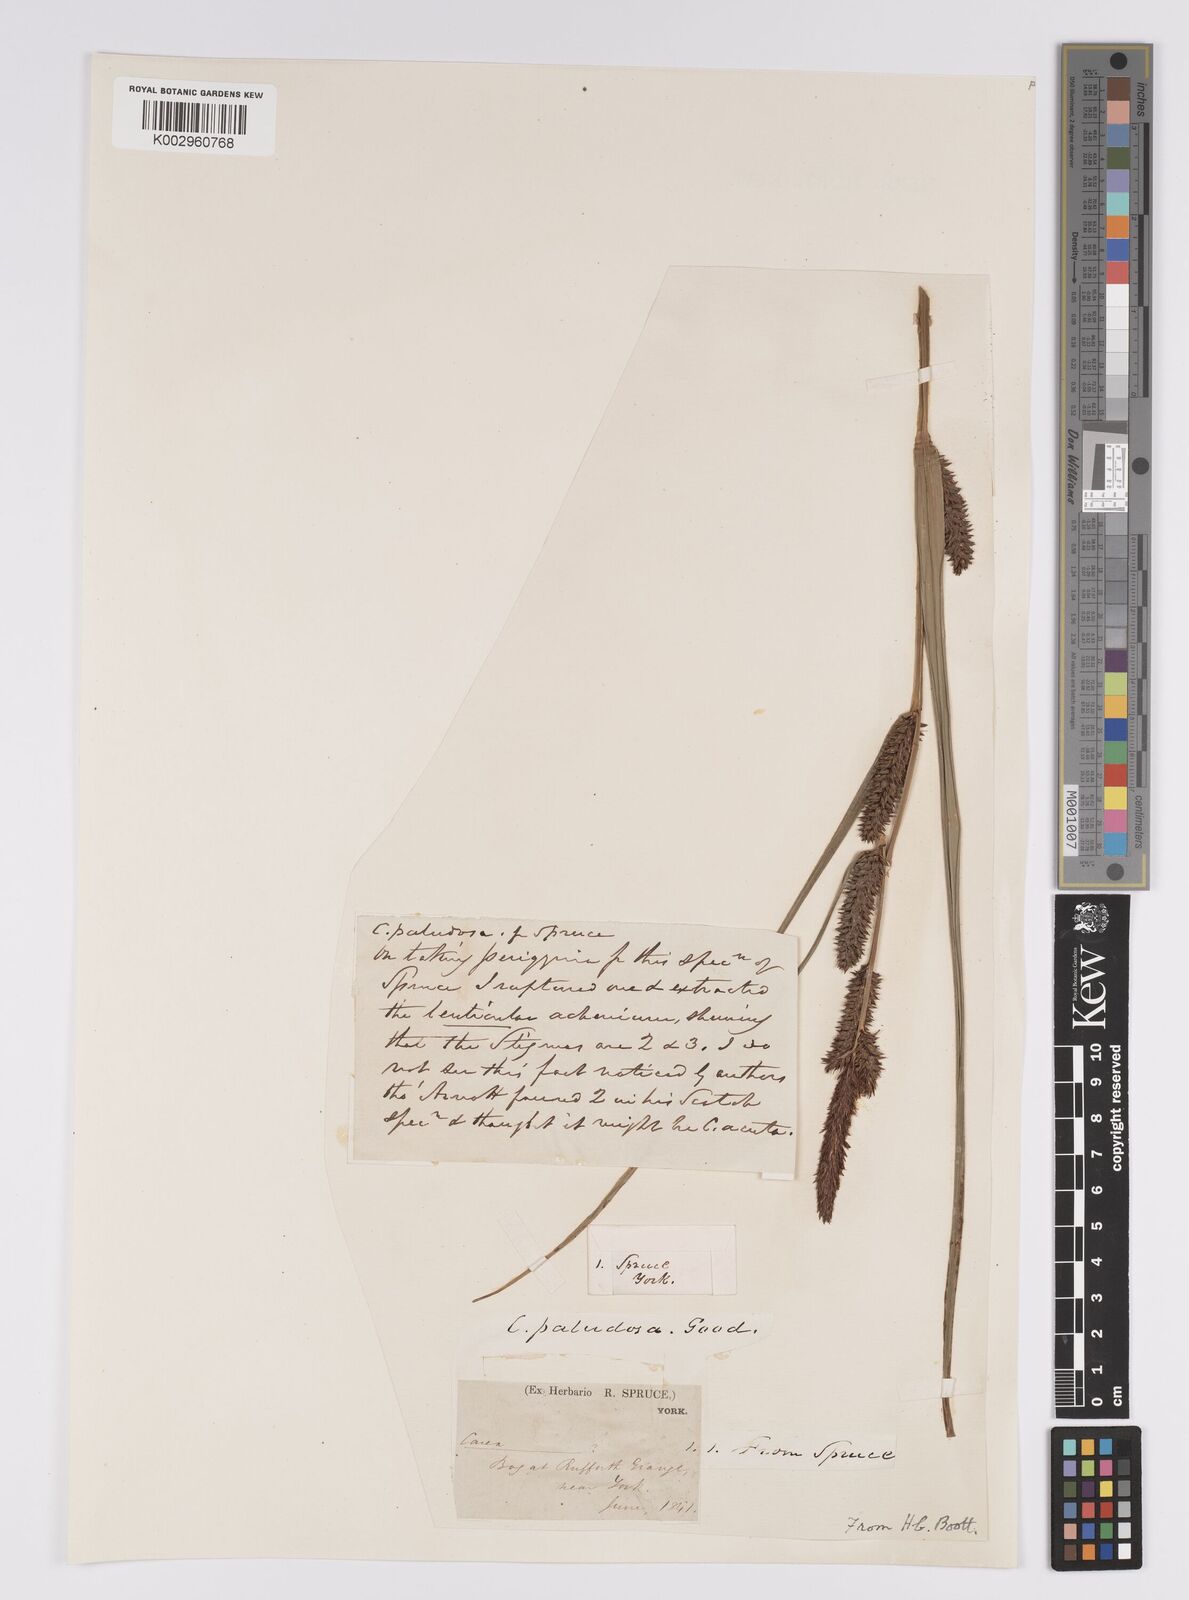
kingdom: Plantae
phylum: Tracheophyta
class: Liliopsida
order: Poales
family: Cyperaceae
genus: Carex
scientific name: Carex acutiformis
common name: Lesser pond-sedge
